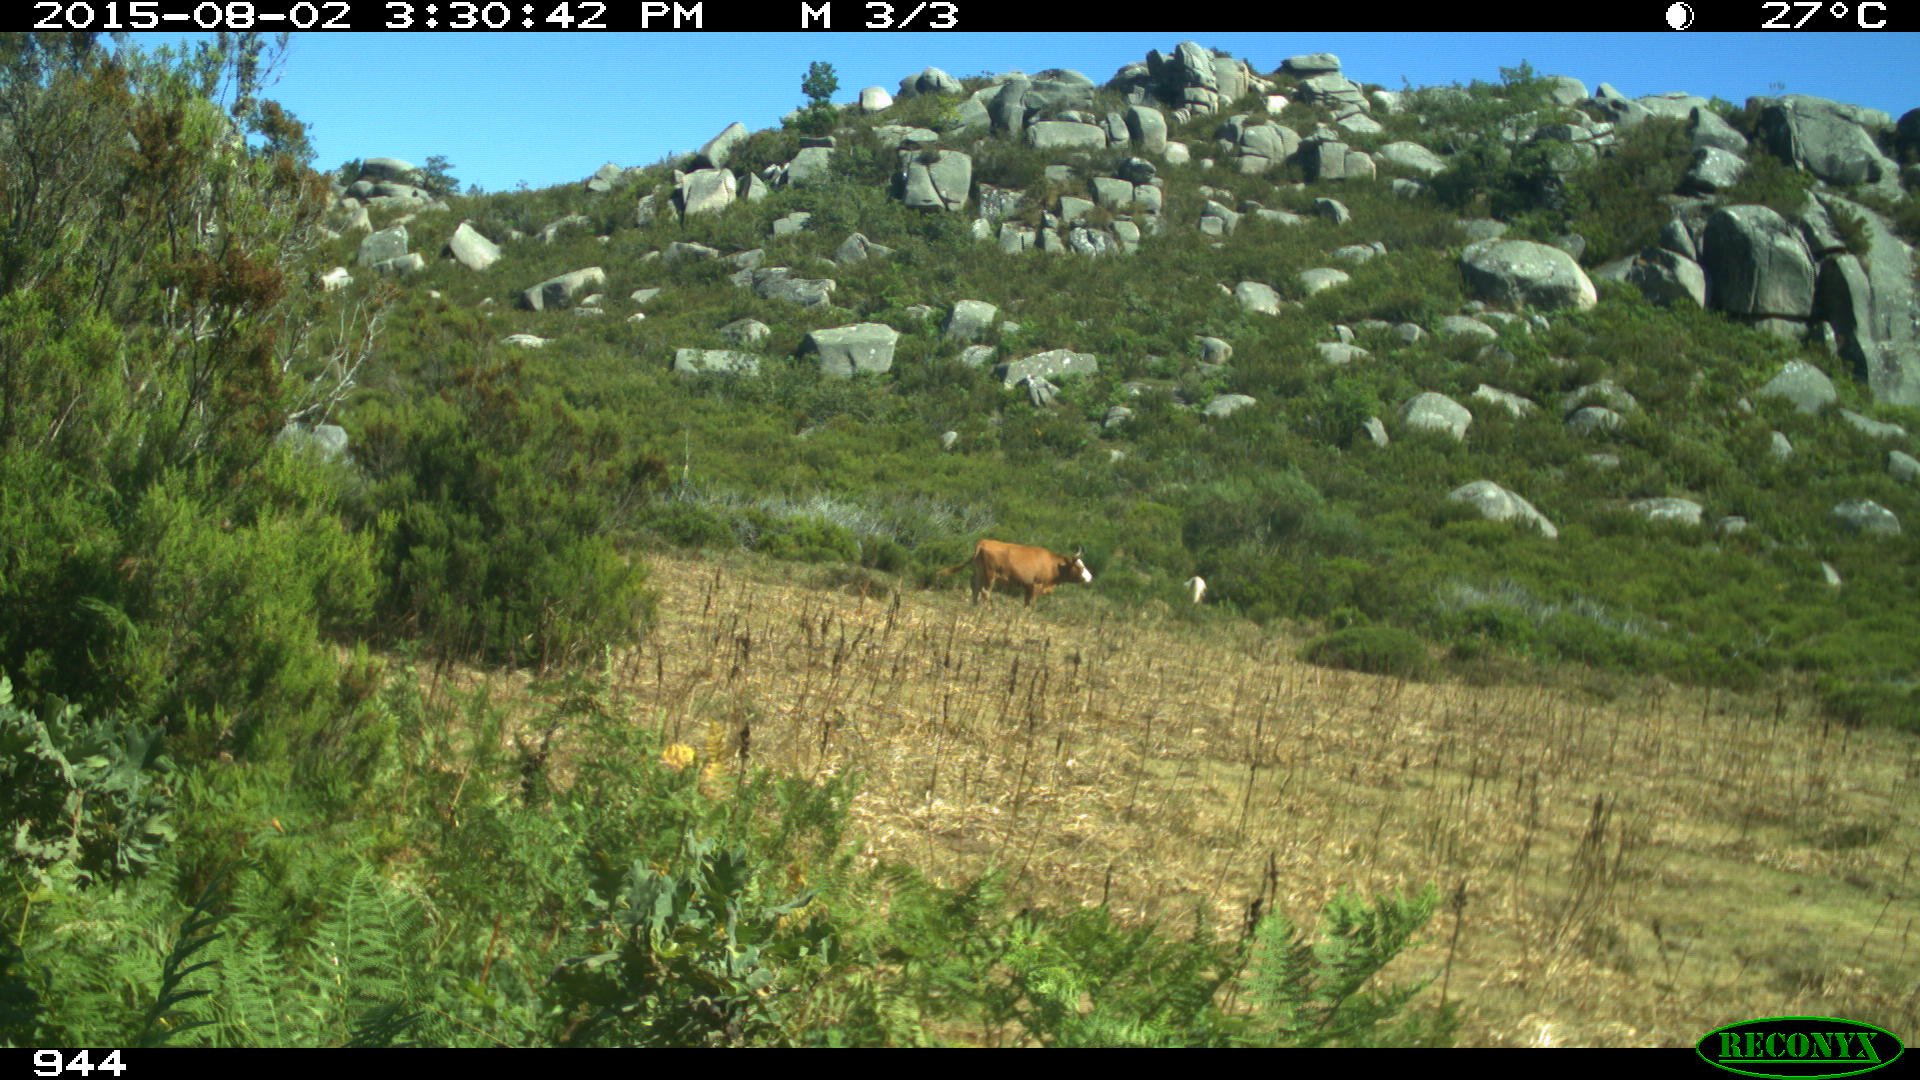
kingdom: Animalia
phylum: Chordata
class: Mammalia
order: Artiodactyla
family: Bovidae
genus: Bos
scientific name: Bos taurus
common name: Domesticated cattle
